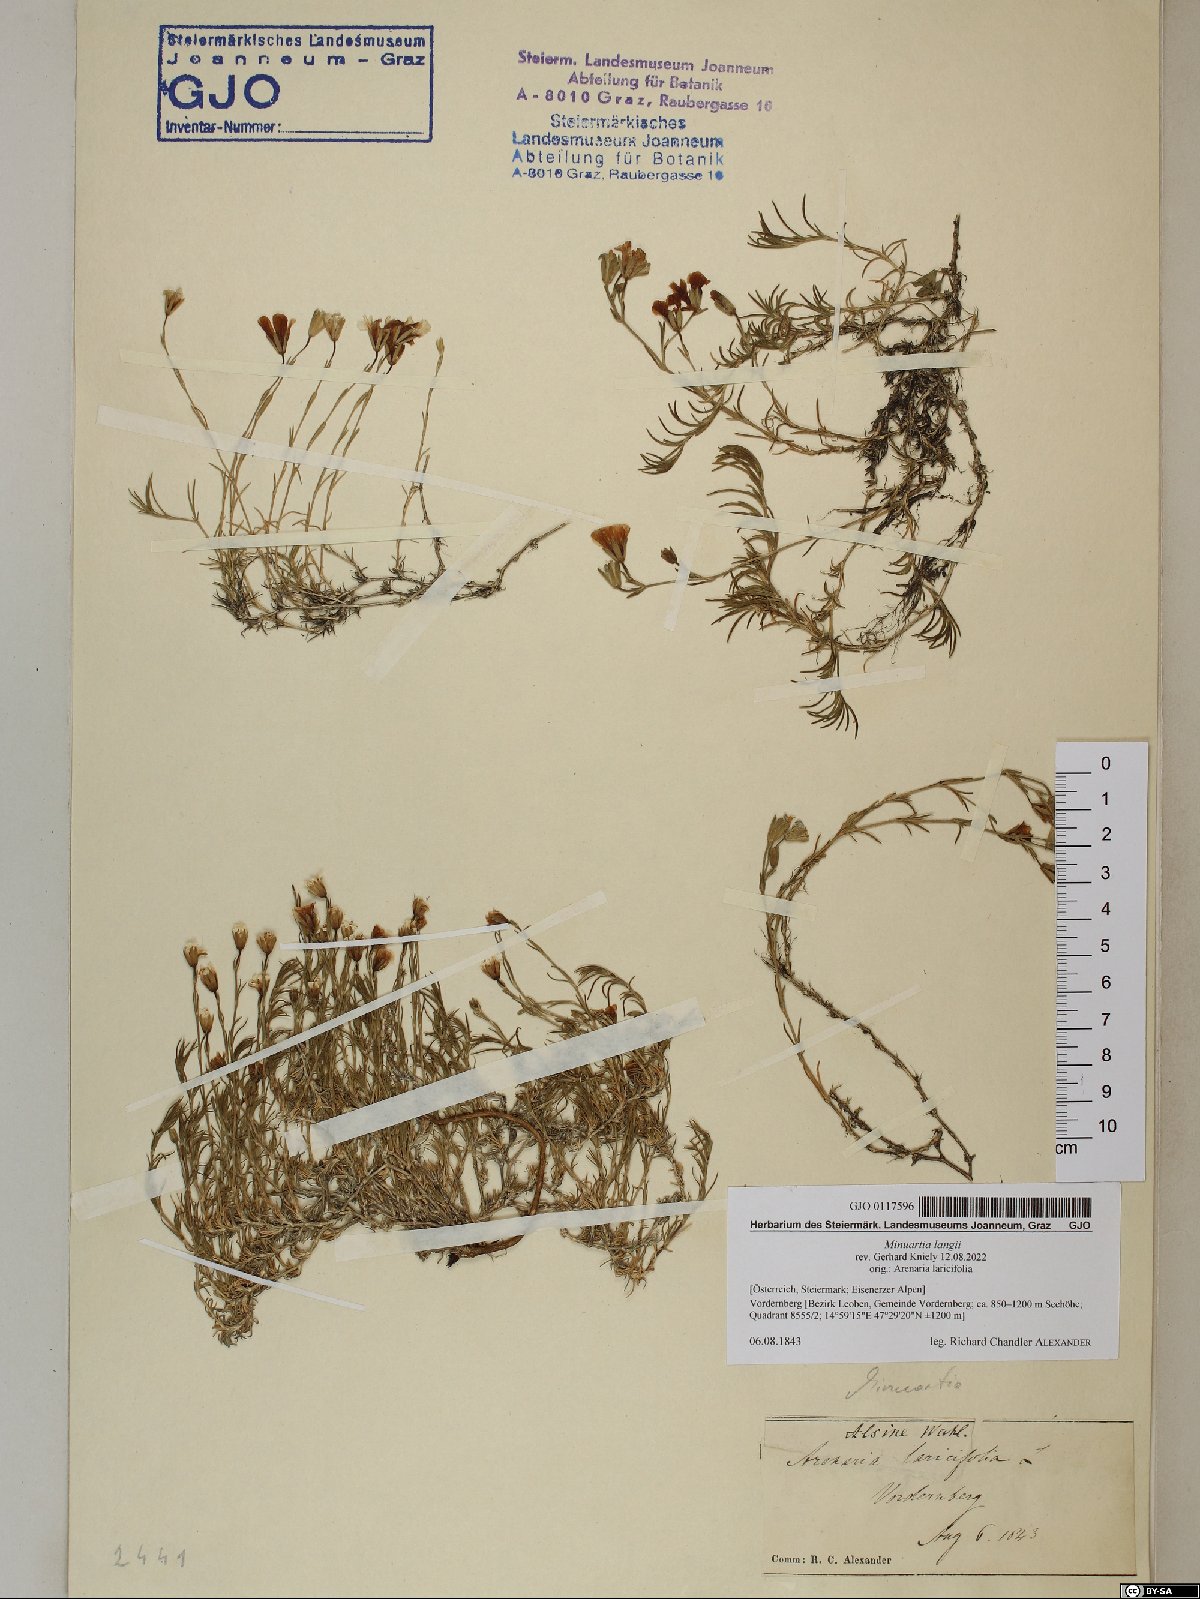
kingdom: Plantae
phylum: Tracheophyta
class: Magnoliopsida
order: Caryophyllales
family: Caryophyllaceae
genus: Cherleria
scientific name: Cherleria langii
